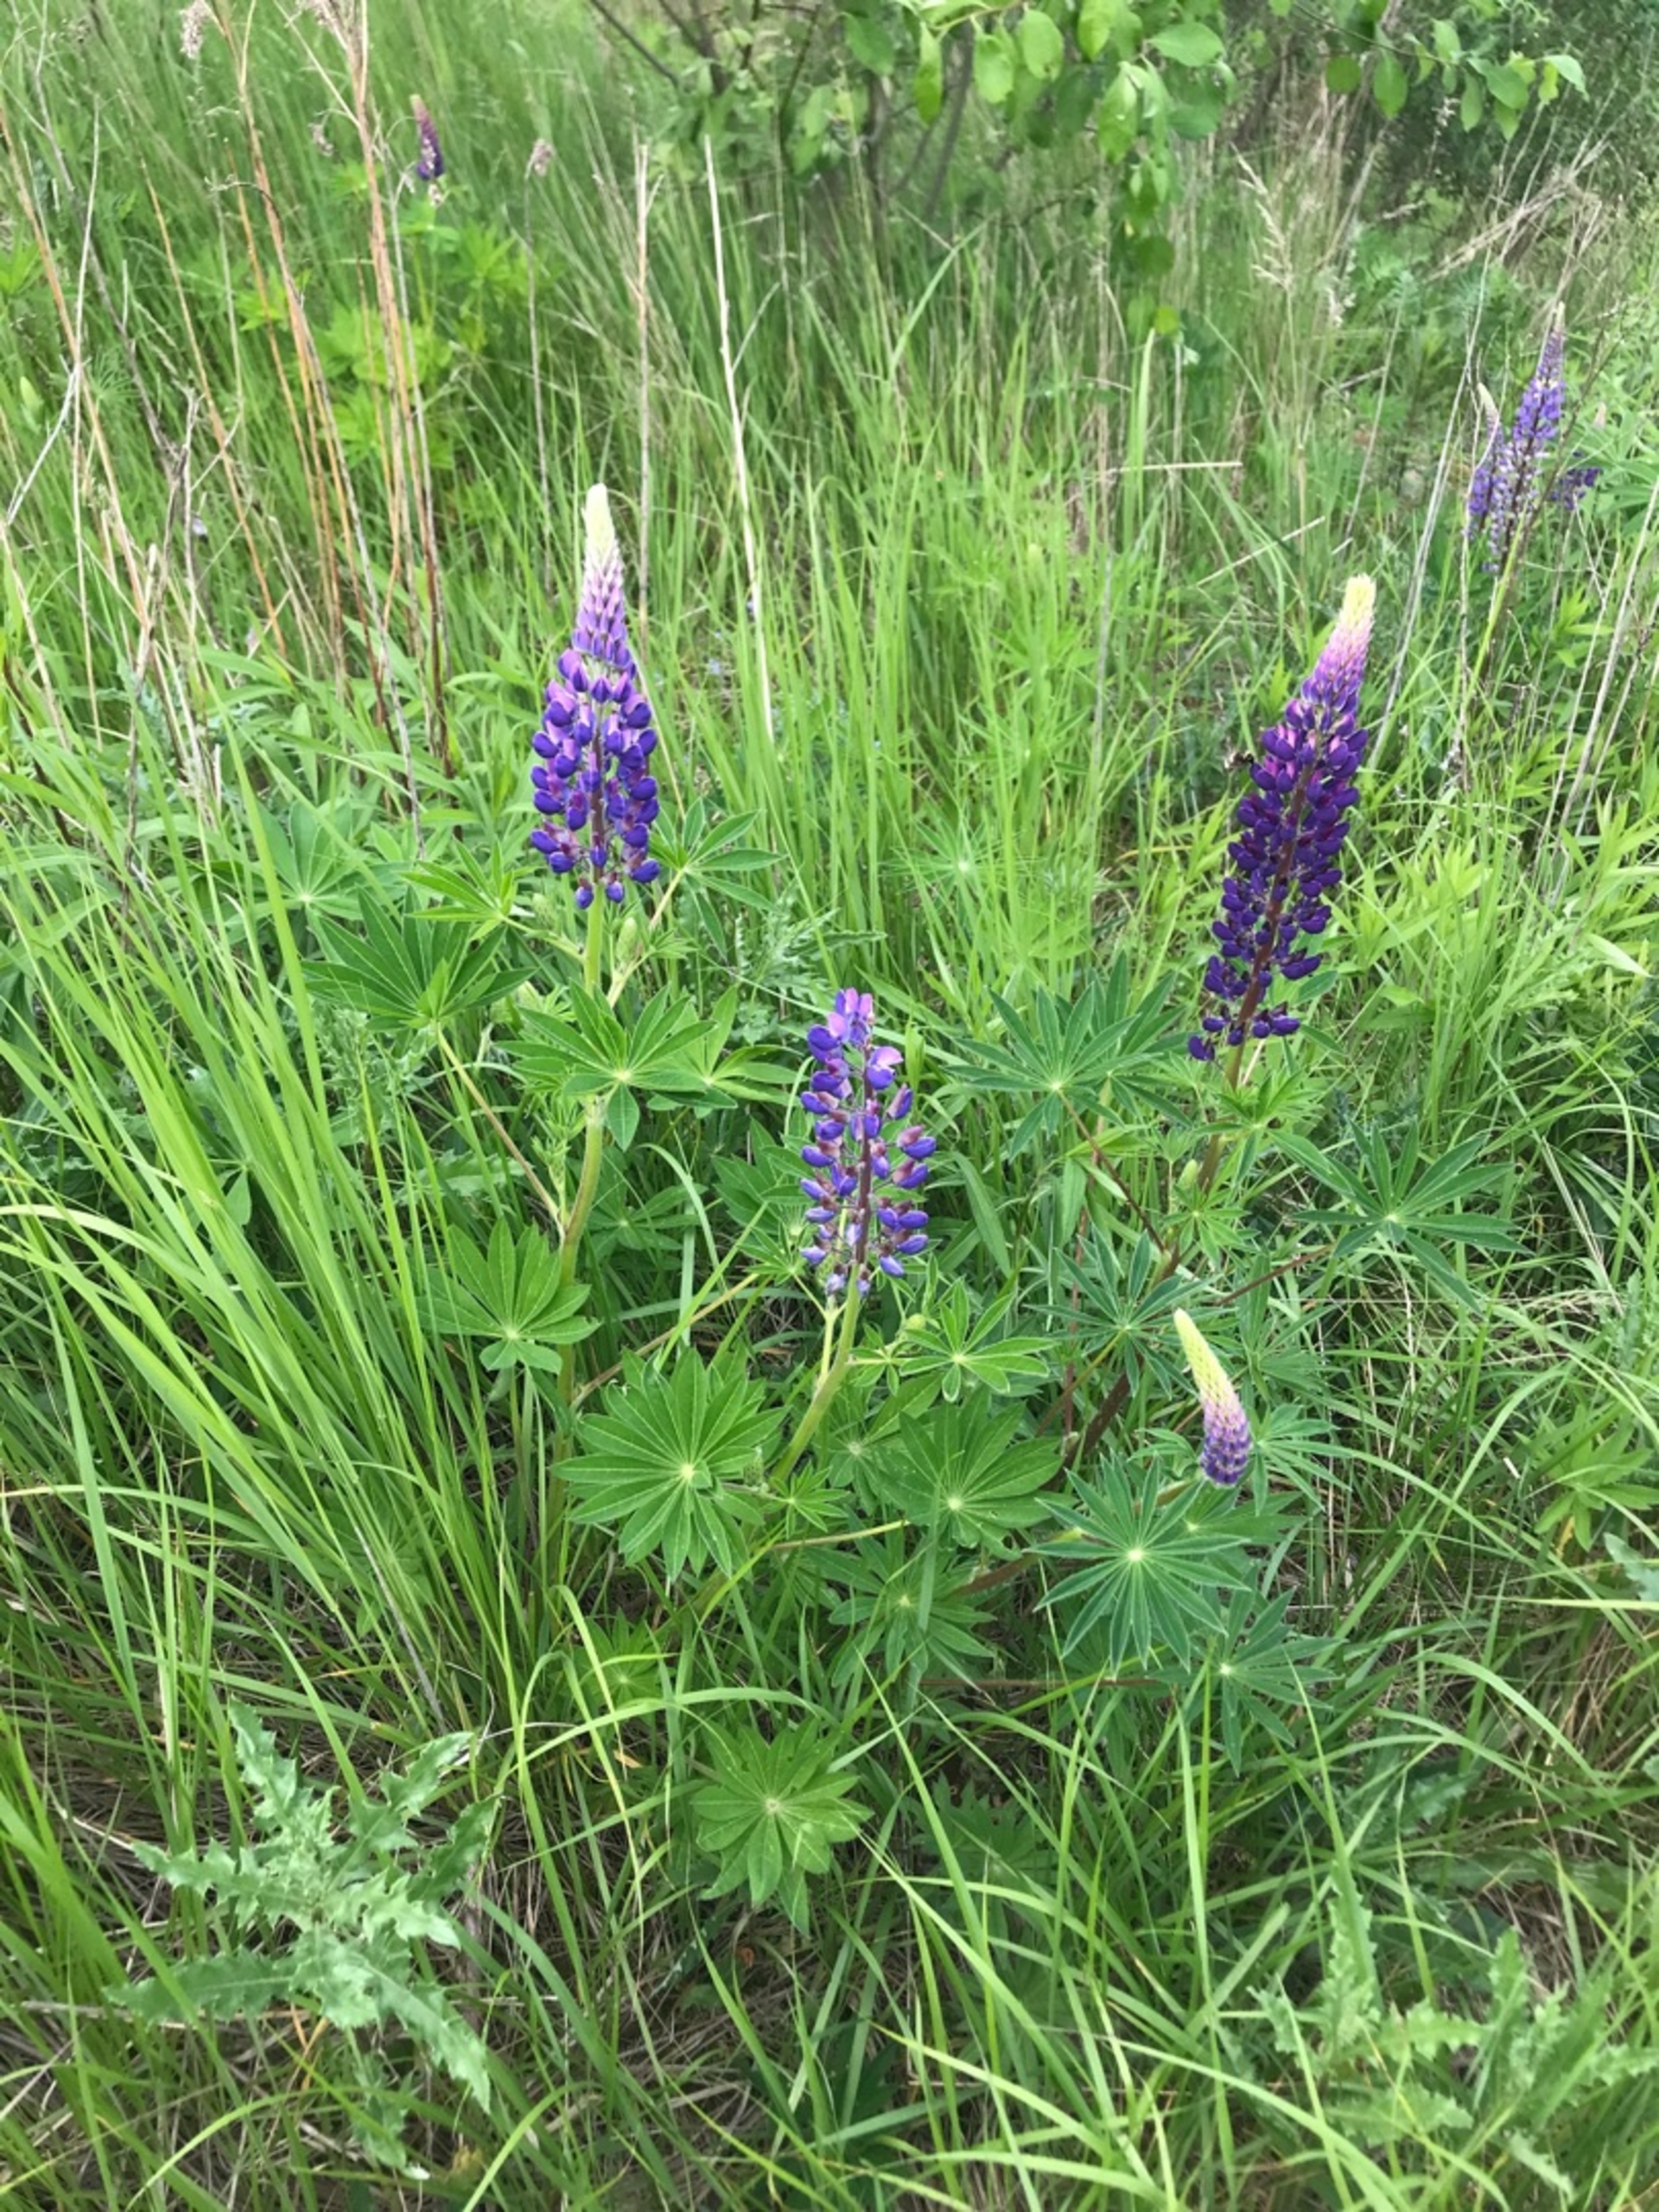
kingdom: Plantae
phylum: Tracheophyta
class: Magnoliopsida
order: Fabales
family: Fabaceae
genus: Lupinus
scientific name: Lupinus polyphyllus
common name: Mangebladet lupin
